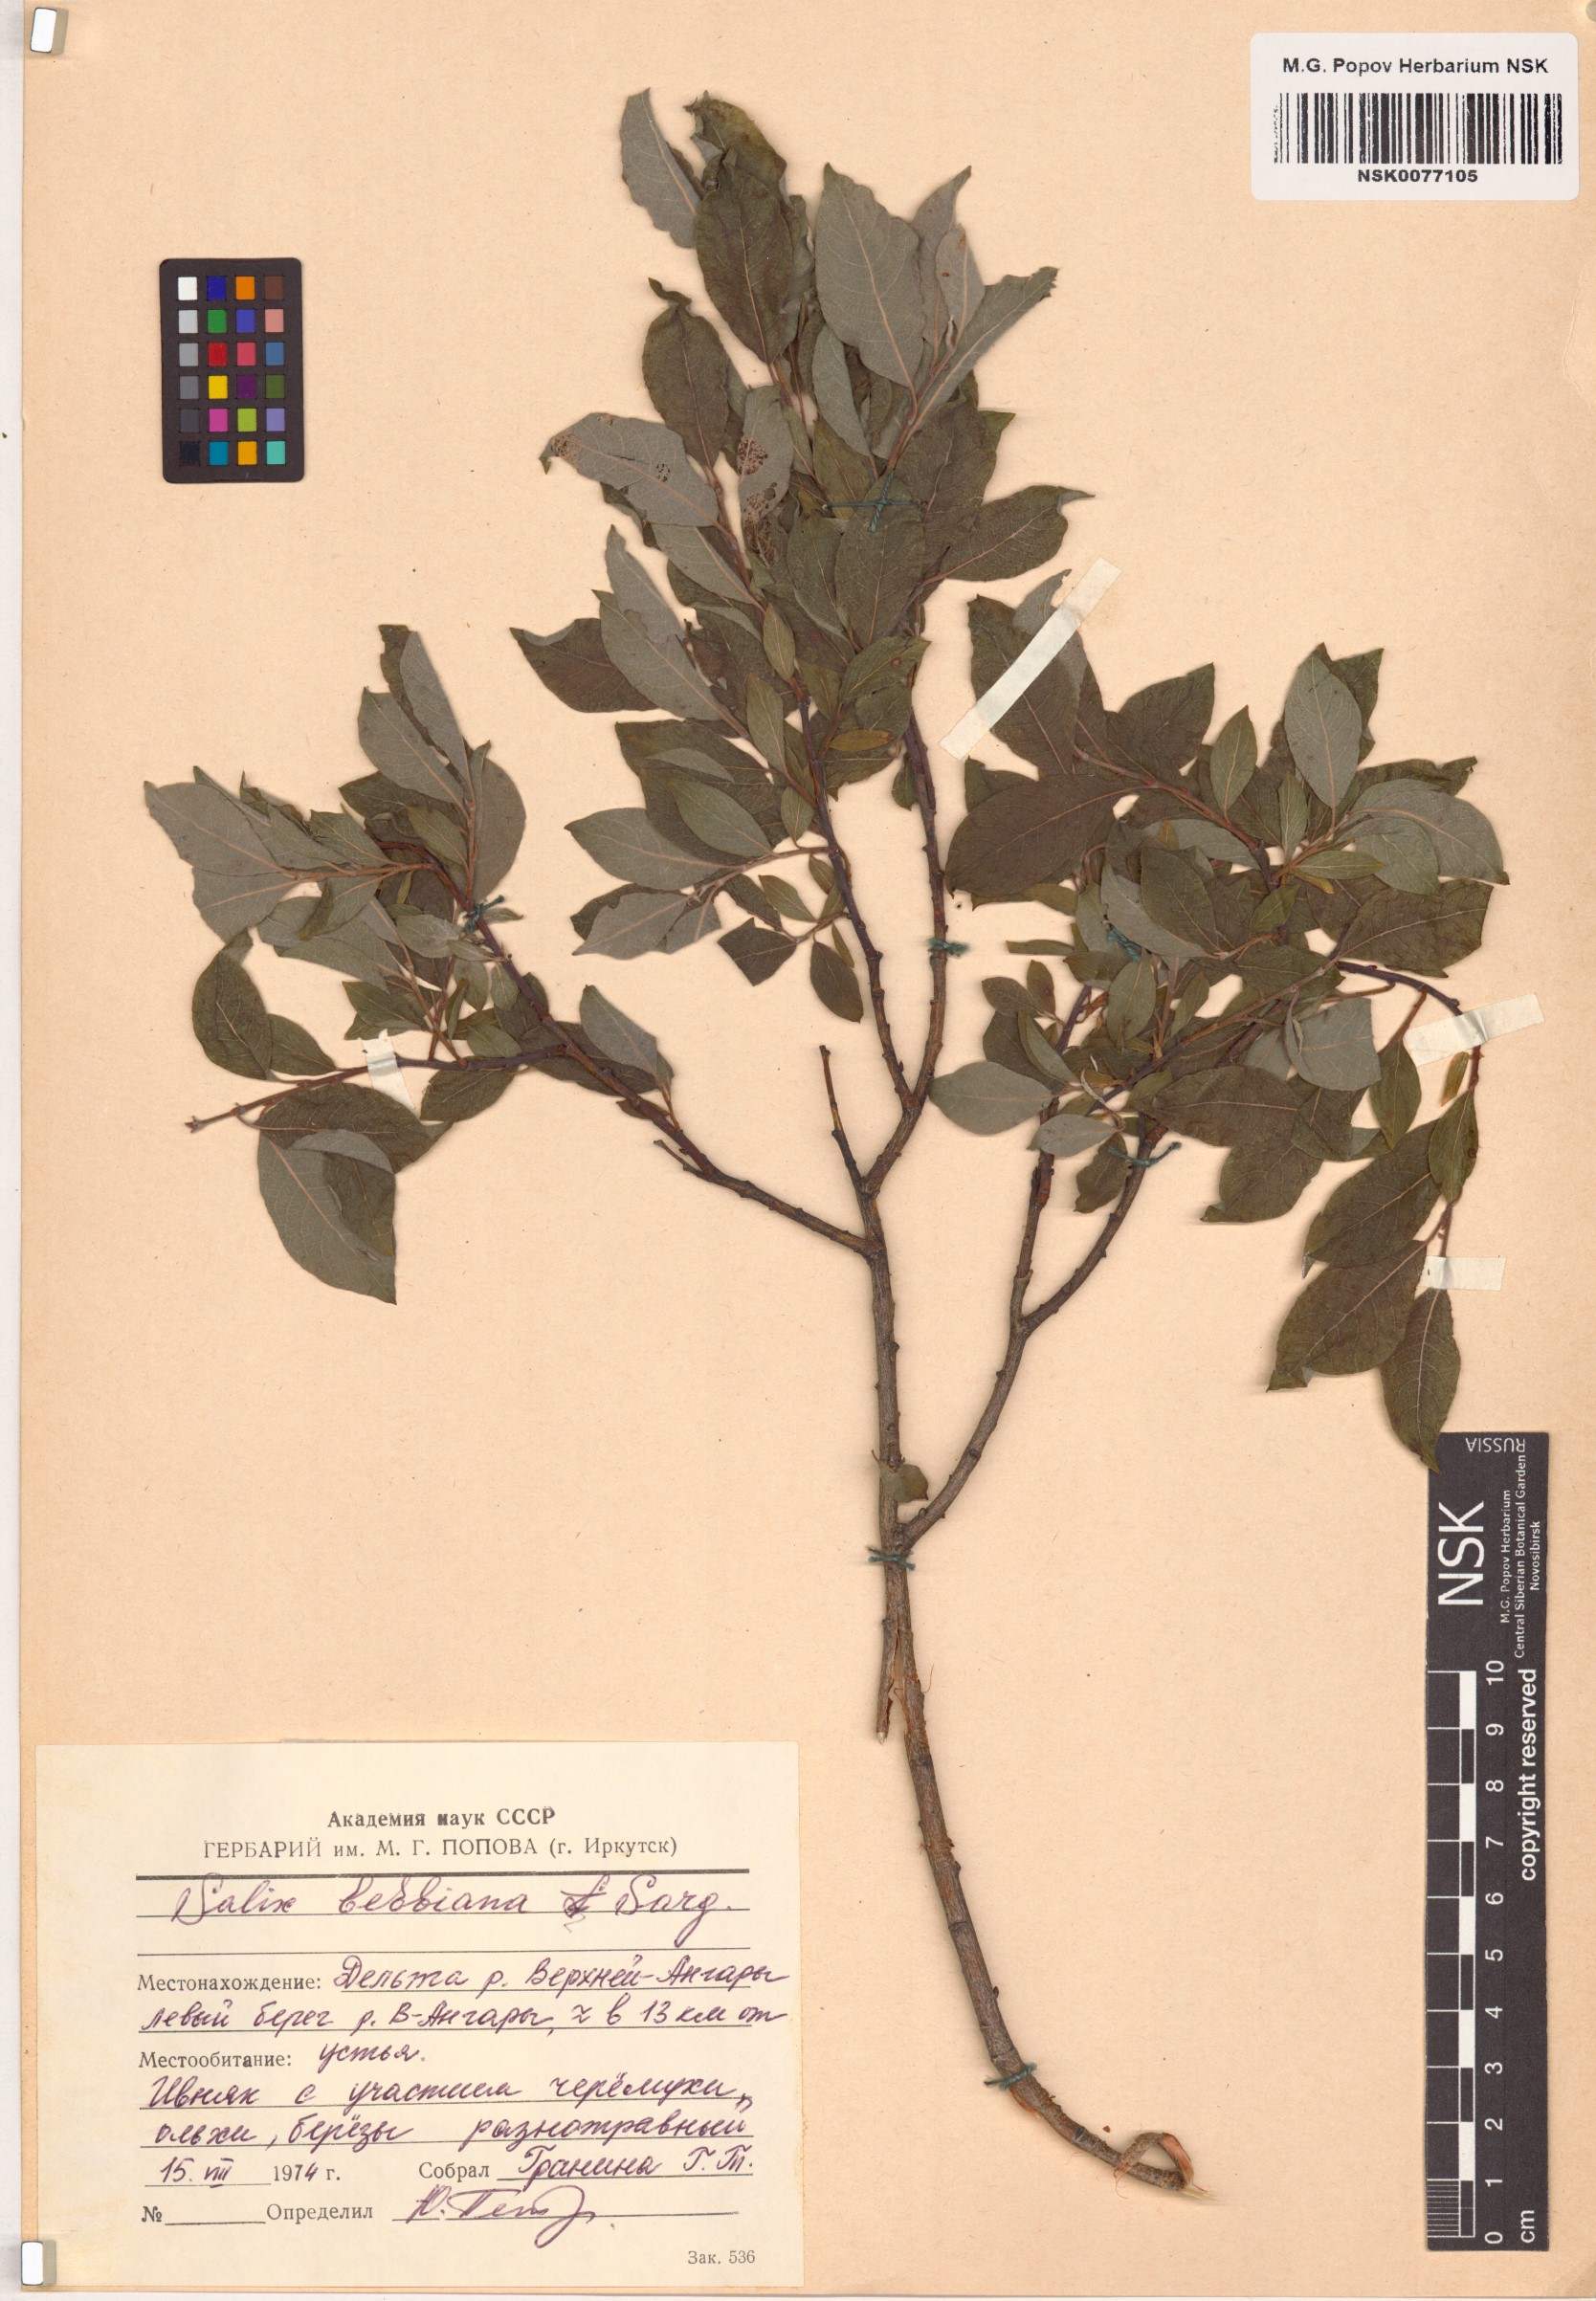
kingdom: Plantae
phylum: Tracheophyta
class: Magnoliopsida
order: Malpighiales
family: Salicaceae
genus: Salix
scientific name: Salix bebbiana
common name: Bebb's willow
